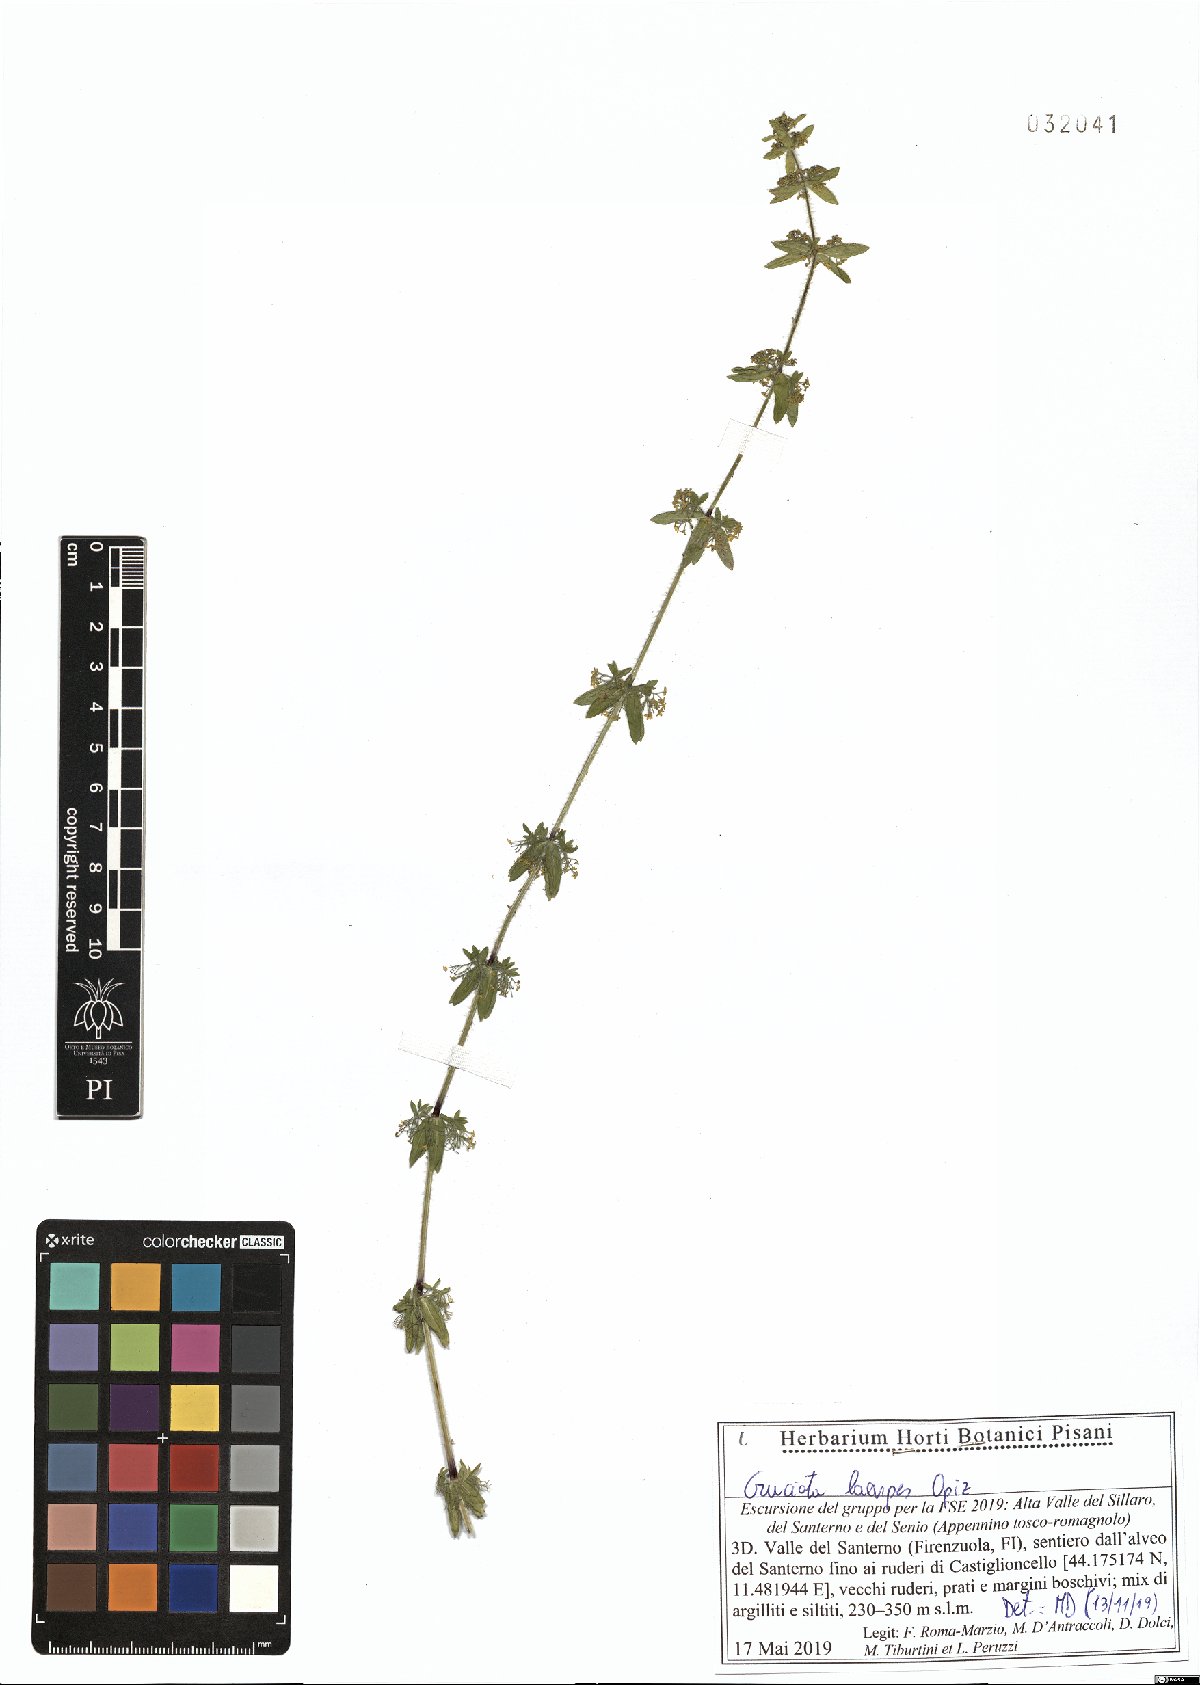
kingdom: Plantae
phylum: Tracheophyta
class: Magnoliopsida
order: Gentianales
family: Rubiaceae
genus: Cruciata
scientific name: Cruciata laevipes
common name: Crosswort
